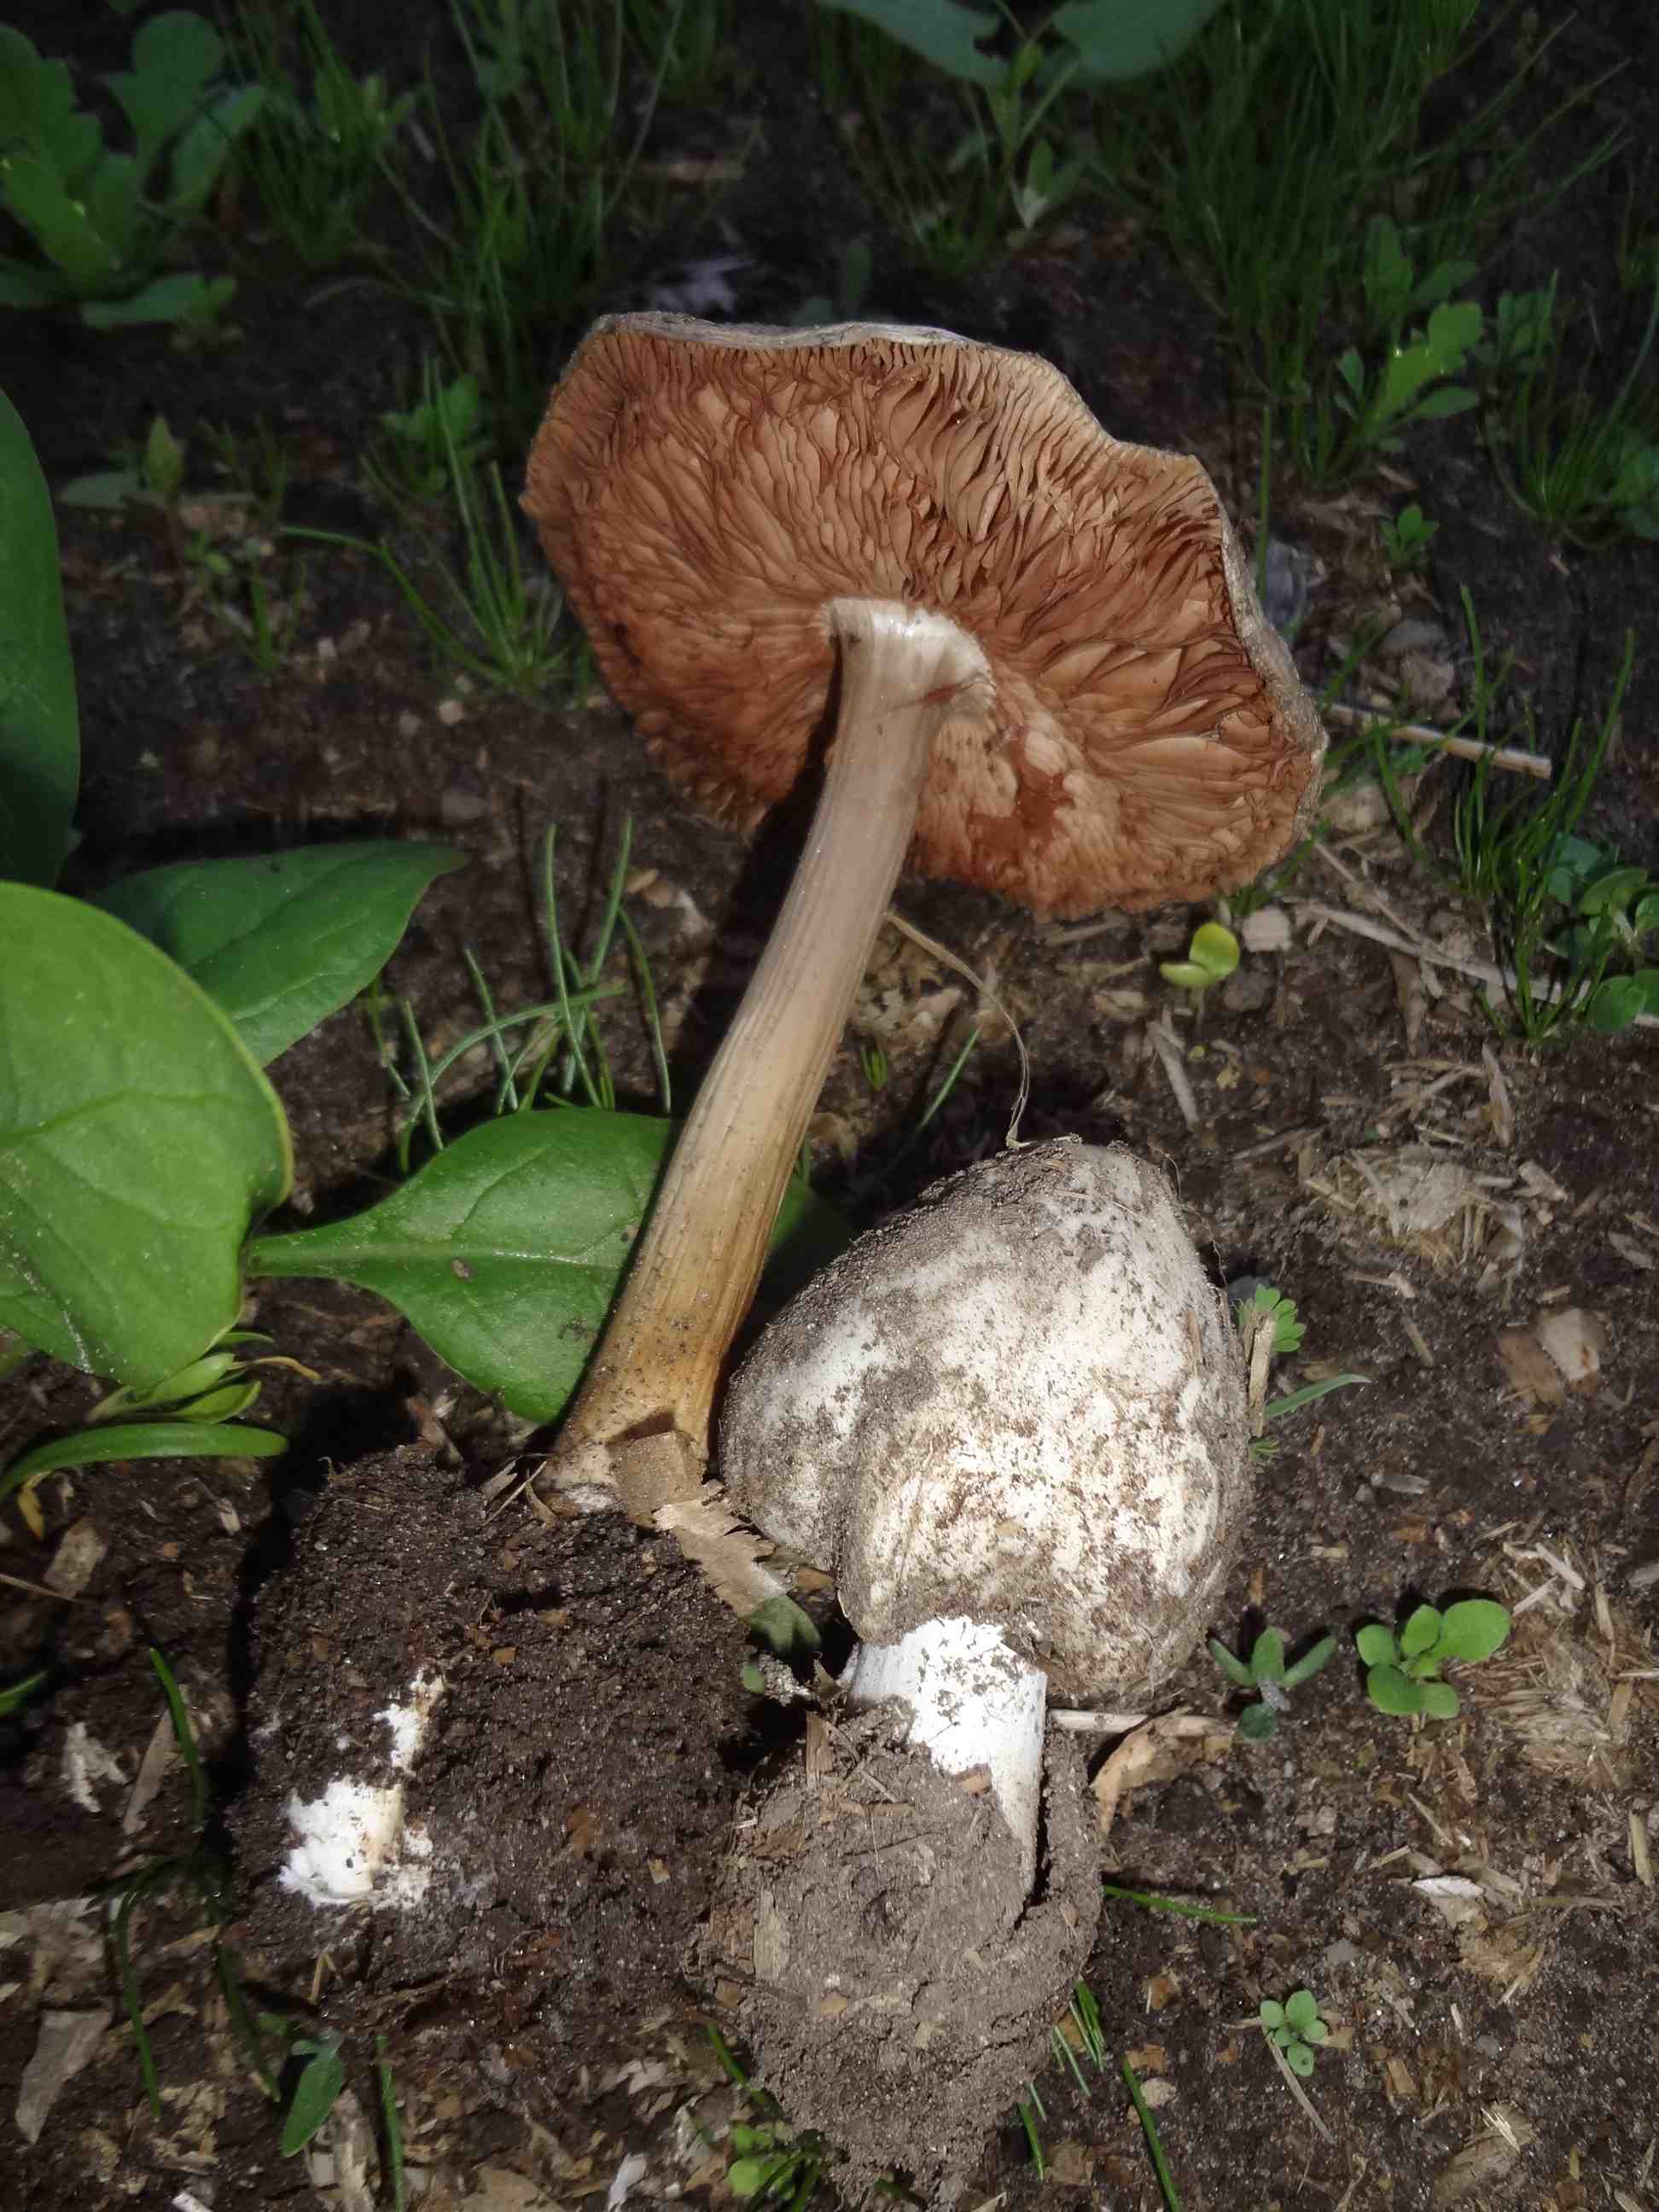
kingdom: Fungi
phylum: Basidiomycota
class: Agaricomycetes
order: Agaricales
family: Pluteaceae
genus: Volvopluteus
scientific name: Volvopluteus gloiocephalus
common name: høj posesvamp
